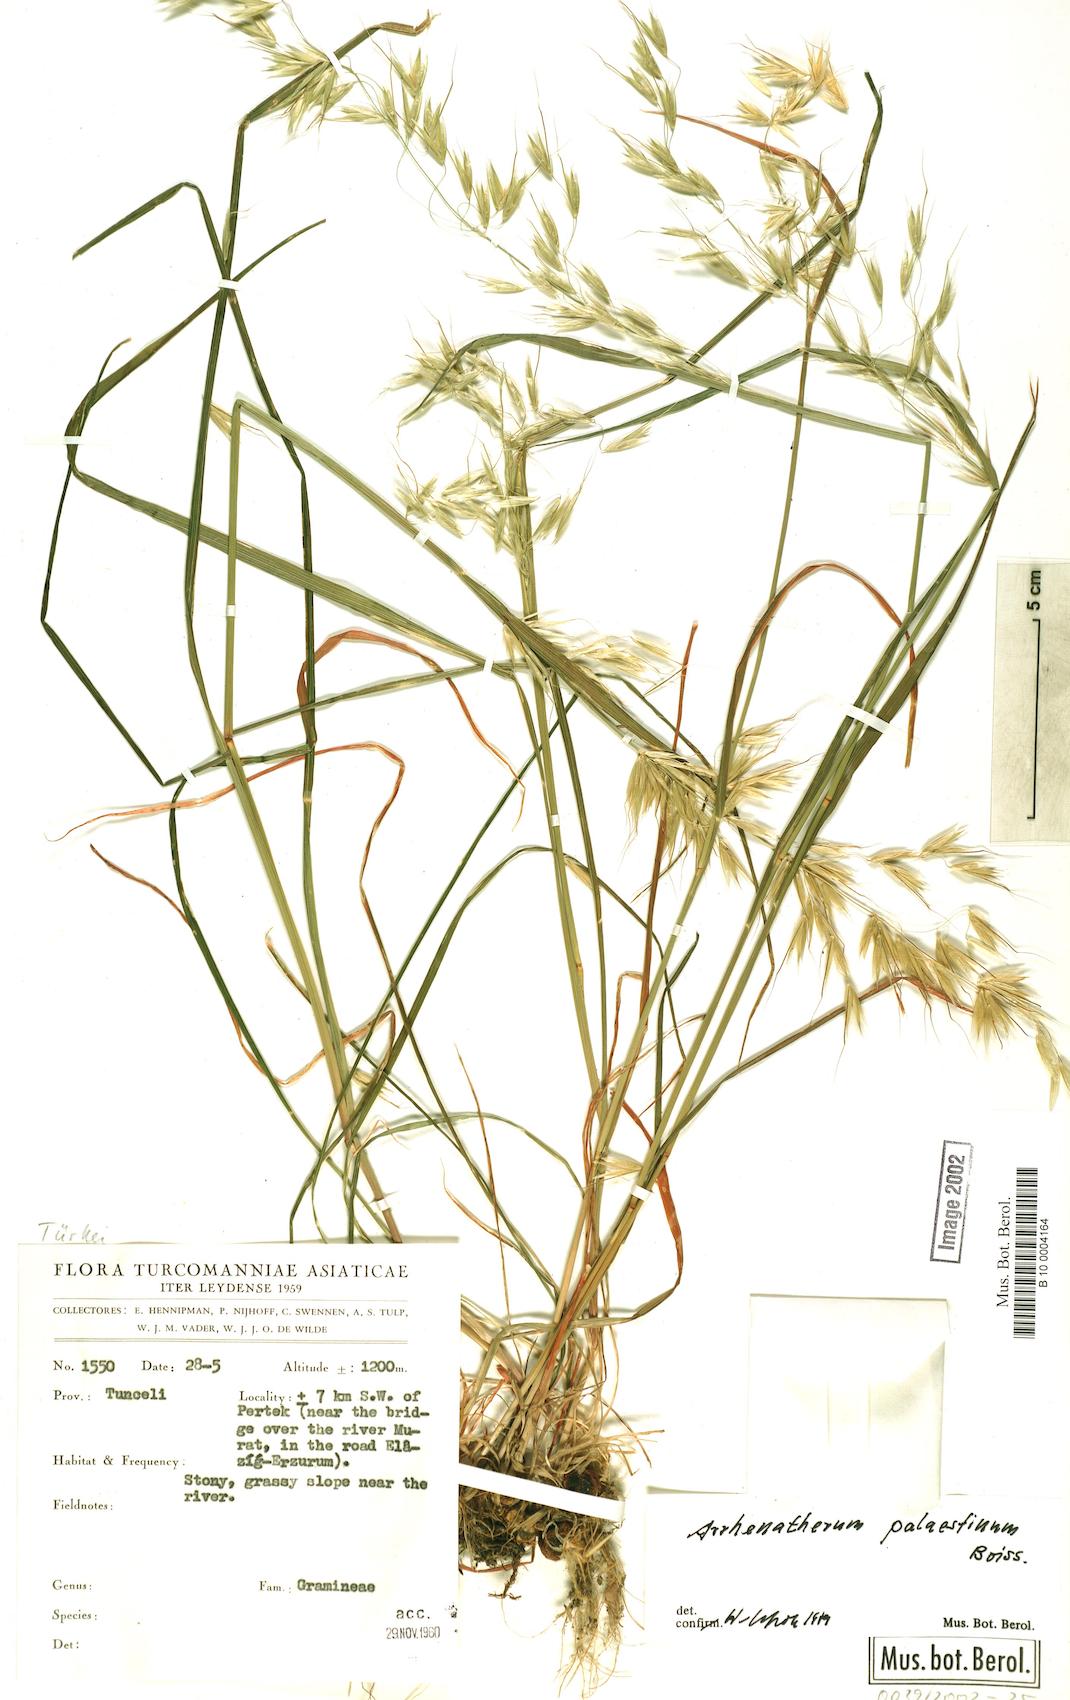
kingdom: Plantae
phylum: Tracheophyta
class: Liliopsida
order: Poales
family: Poaceae
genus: Arrhenatherum
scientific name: Arrhenatherum palaestinum
